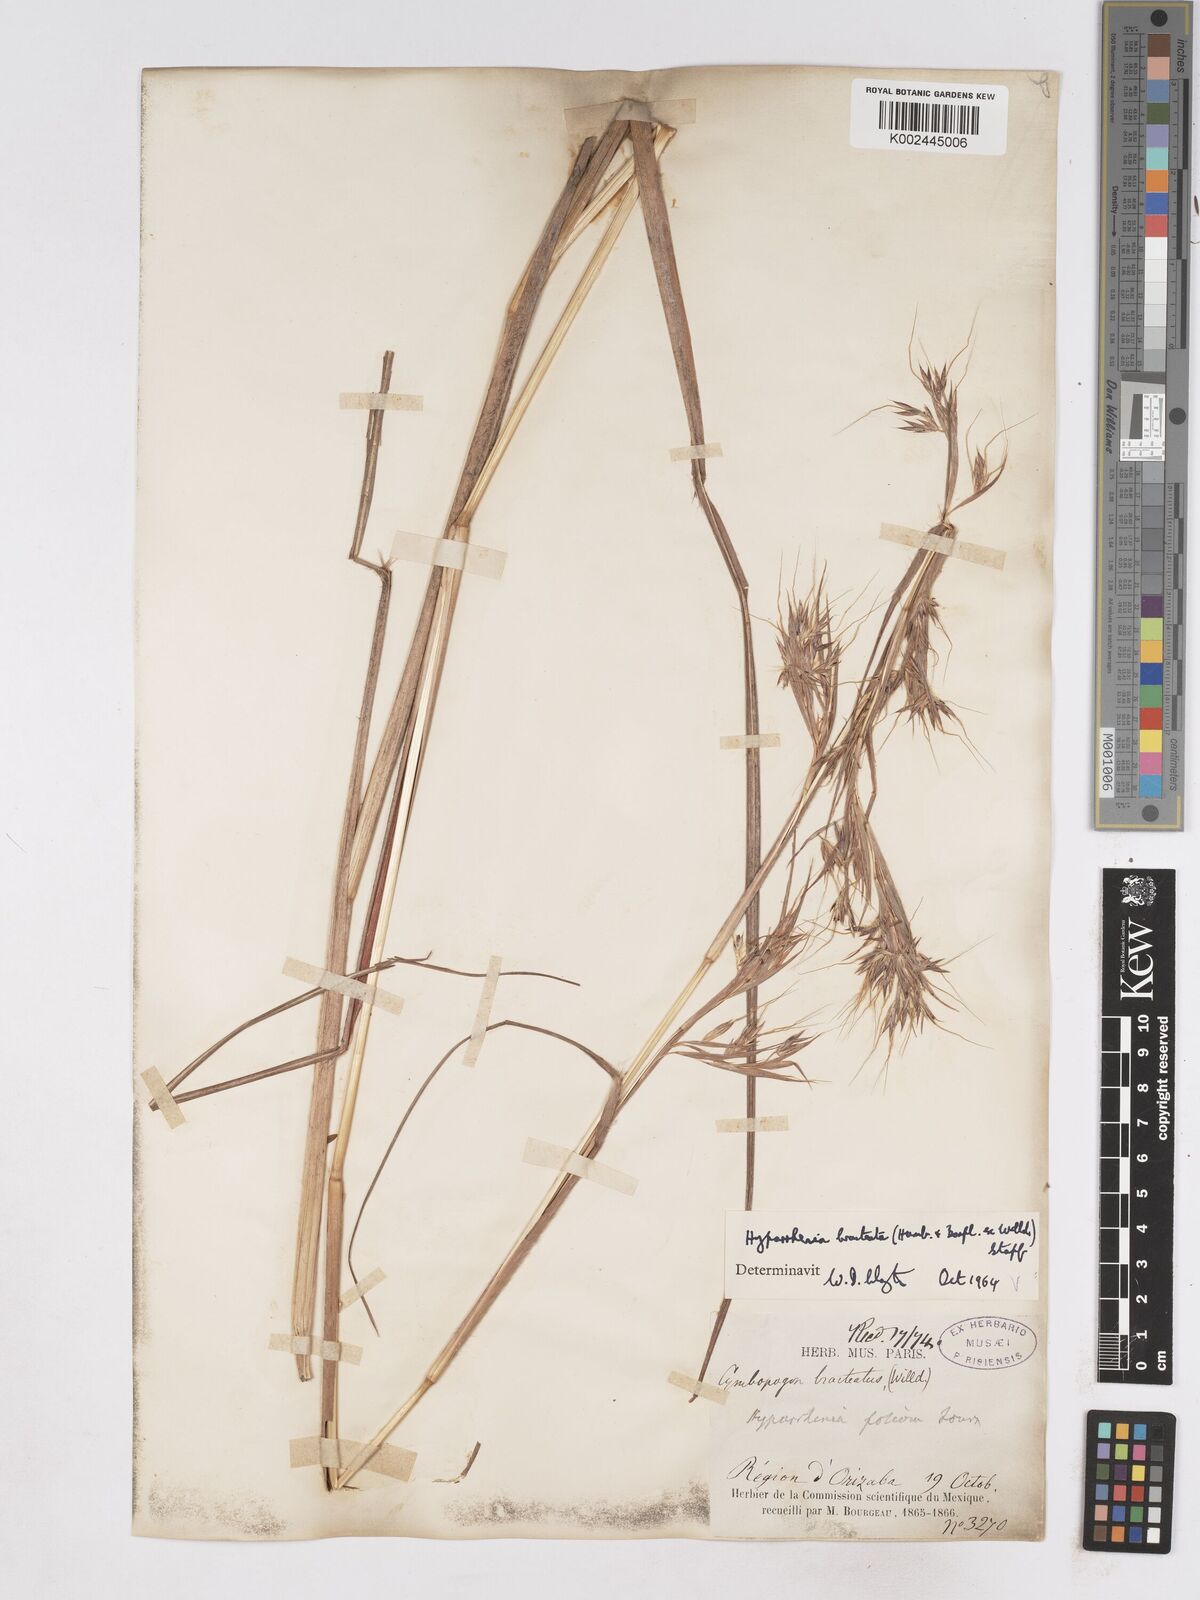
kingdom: Plantae
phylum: Tracheophyta
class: Liliopsida
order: Poales
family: Poaceae
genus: Hyparrhenia
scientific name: Hyparrhenia bracteata
